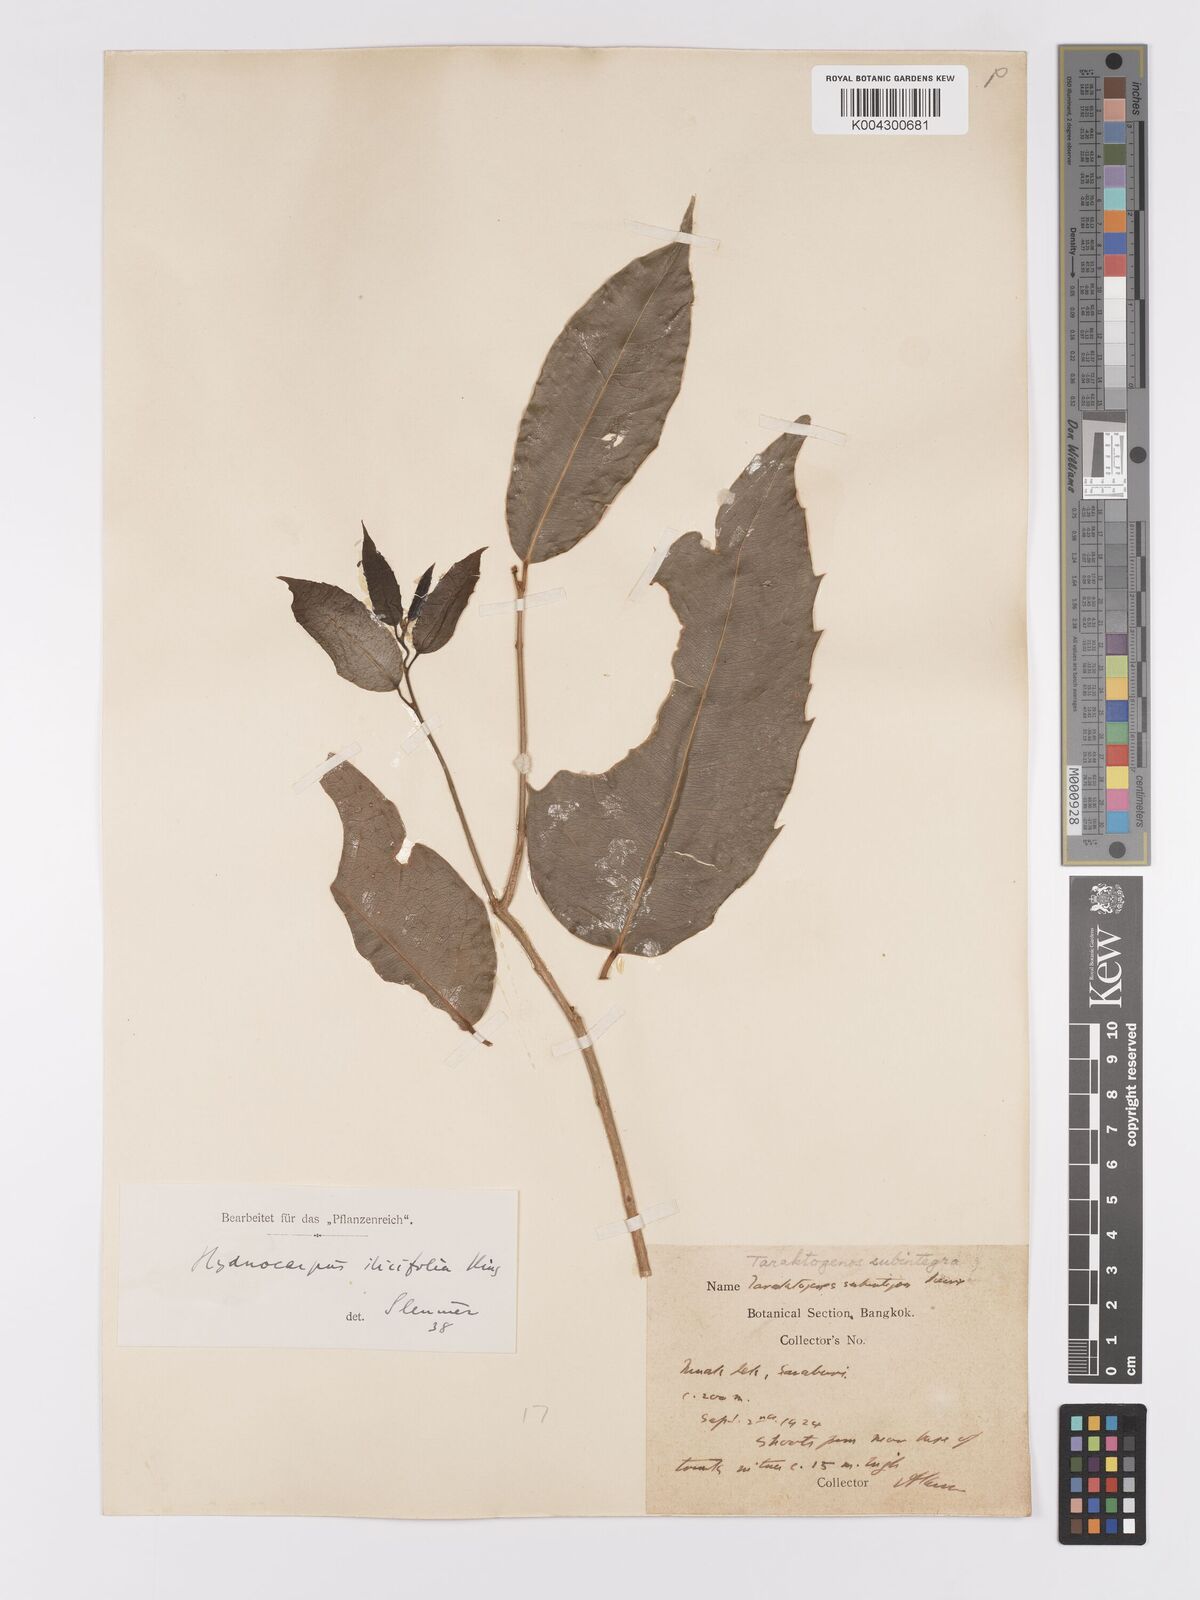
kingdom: Plantae
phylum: Tracheophyta
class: Magnoliopsida
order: Malpighiales
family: Achariaceae
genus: Hydnocarpus
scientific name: Hydnocarpus ilicifolius
